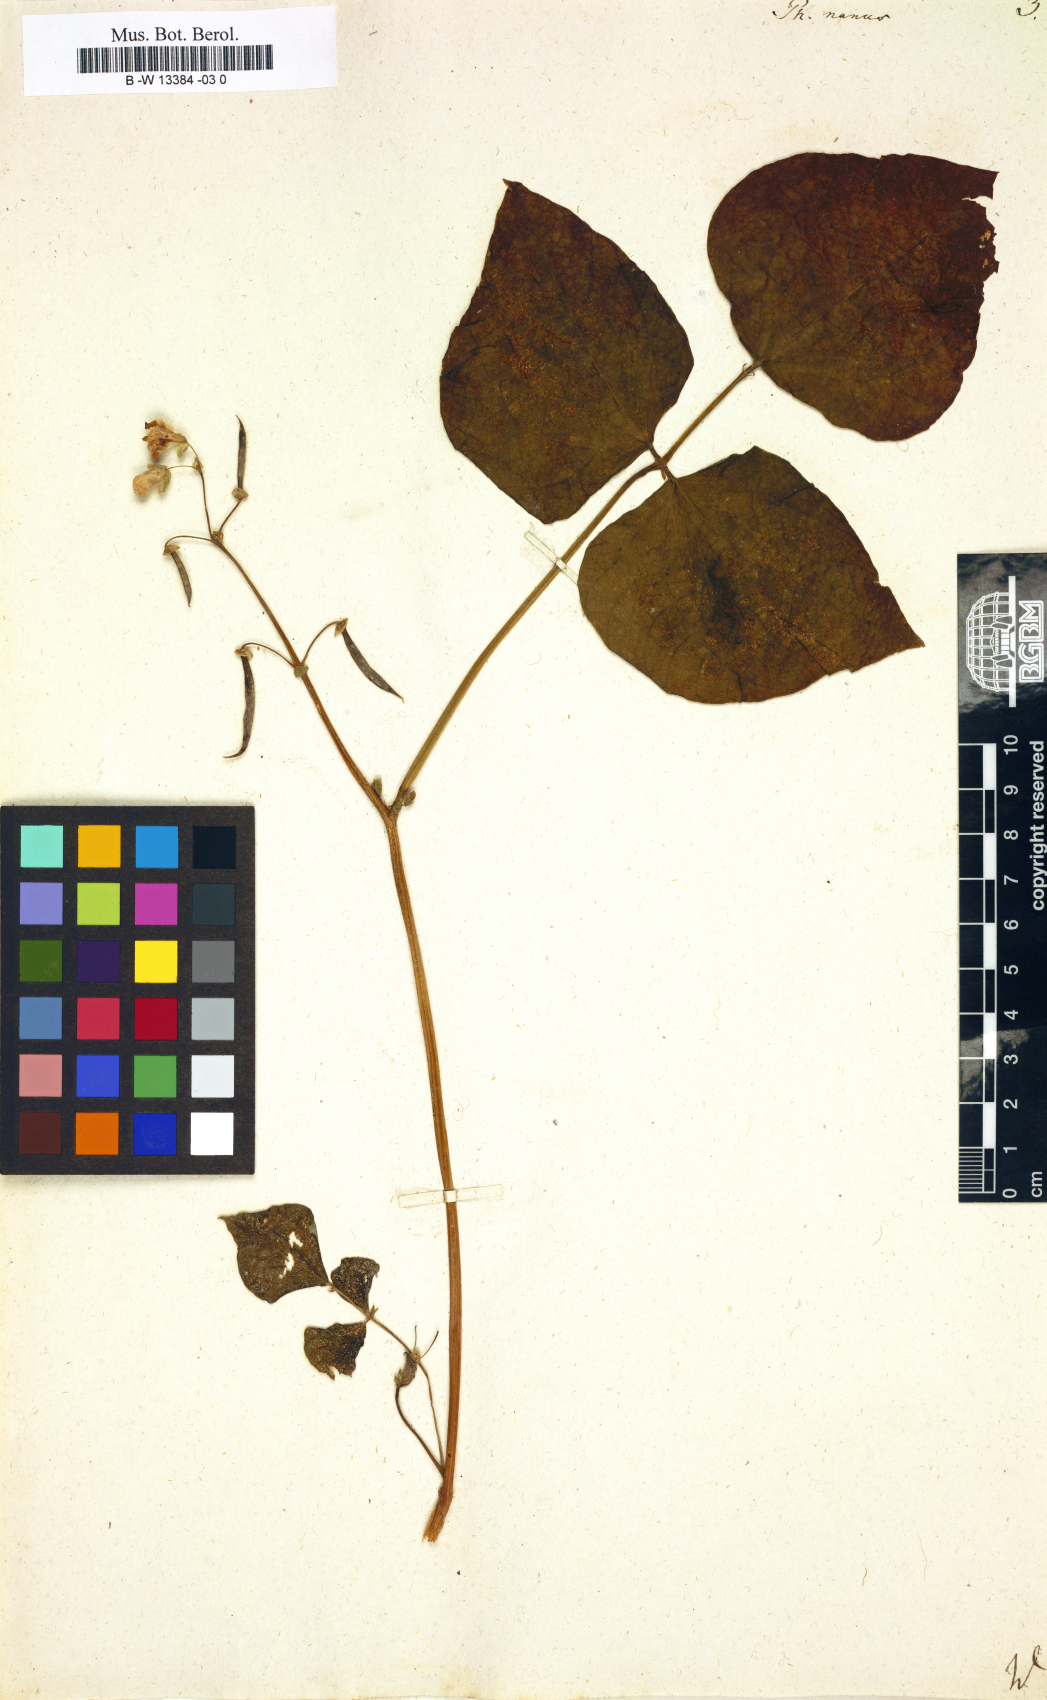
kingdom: Plantae
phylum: Tracheophyta
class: Magnoliopsida
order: Fabales
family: Fabaceae
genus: Phaseolus
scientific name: Phaseolus vulgaris
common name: Bean
